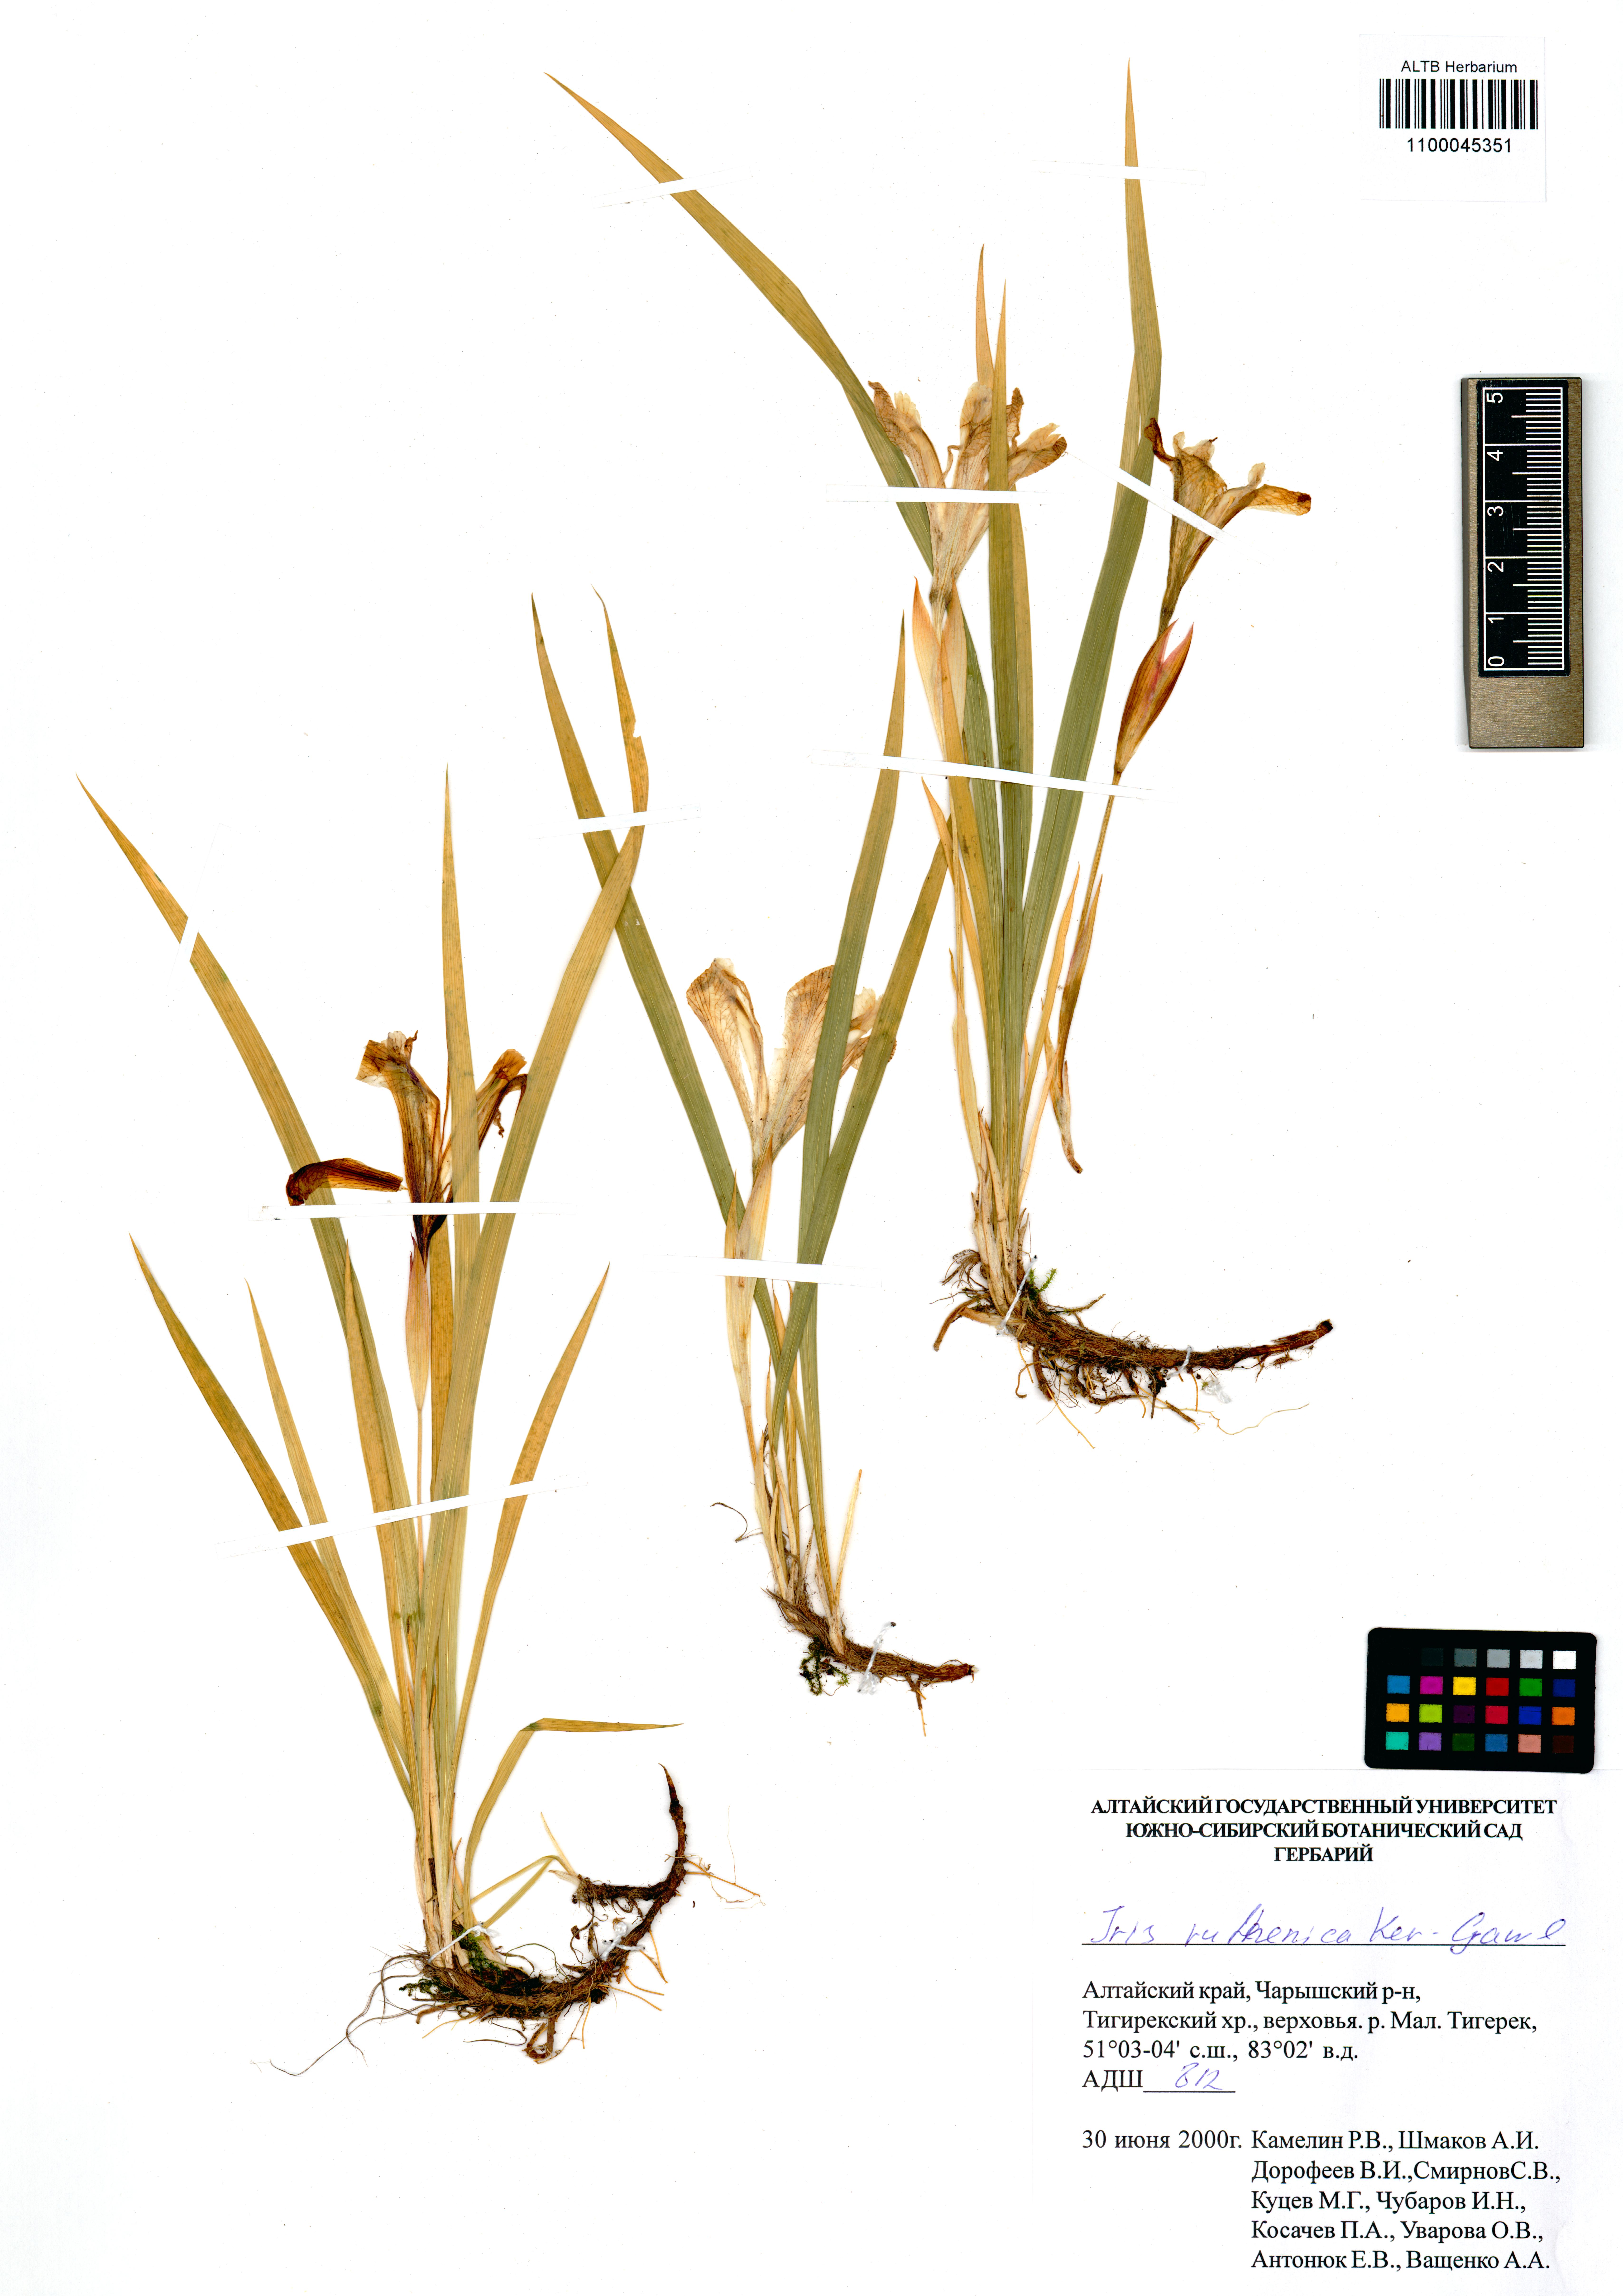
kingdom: Plantae
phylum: Tracheophyta
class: Liliopsida
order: Asparagales
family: Iridaceae
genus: Iris
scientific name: Iris ruthenica
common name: Purple-bract iris
